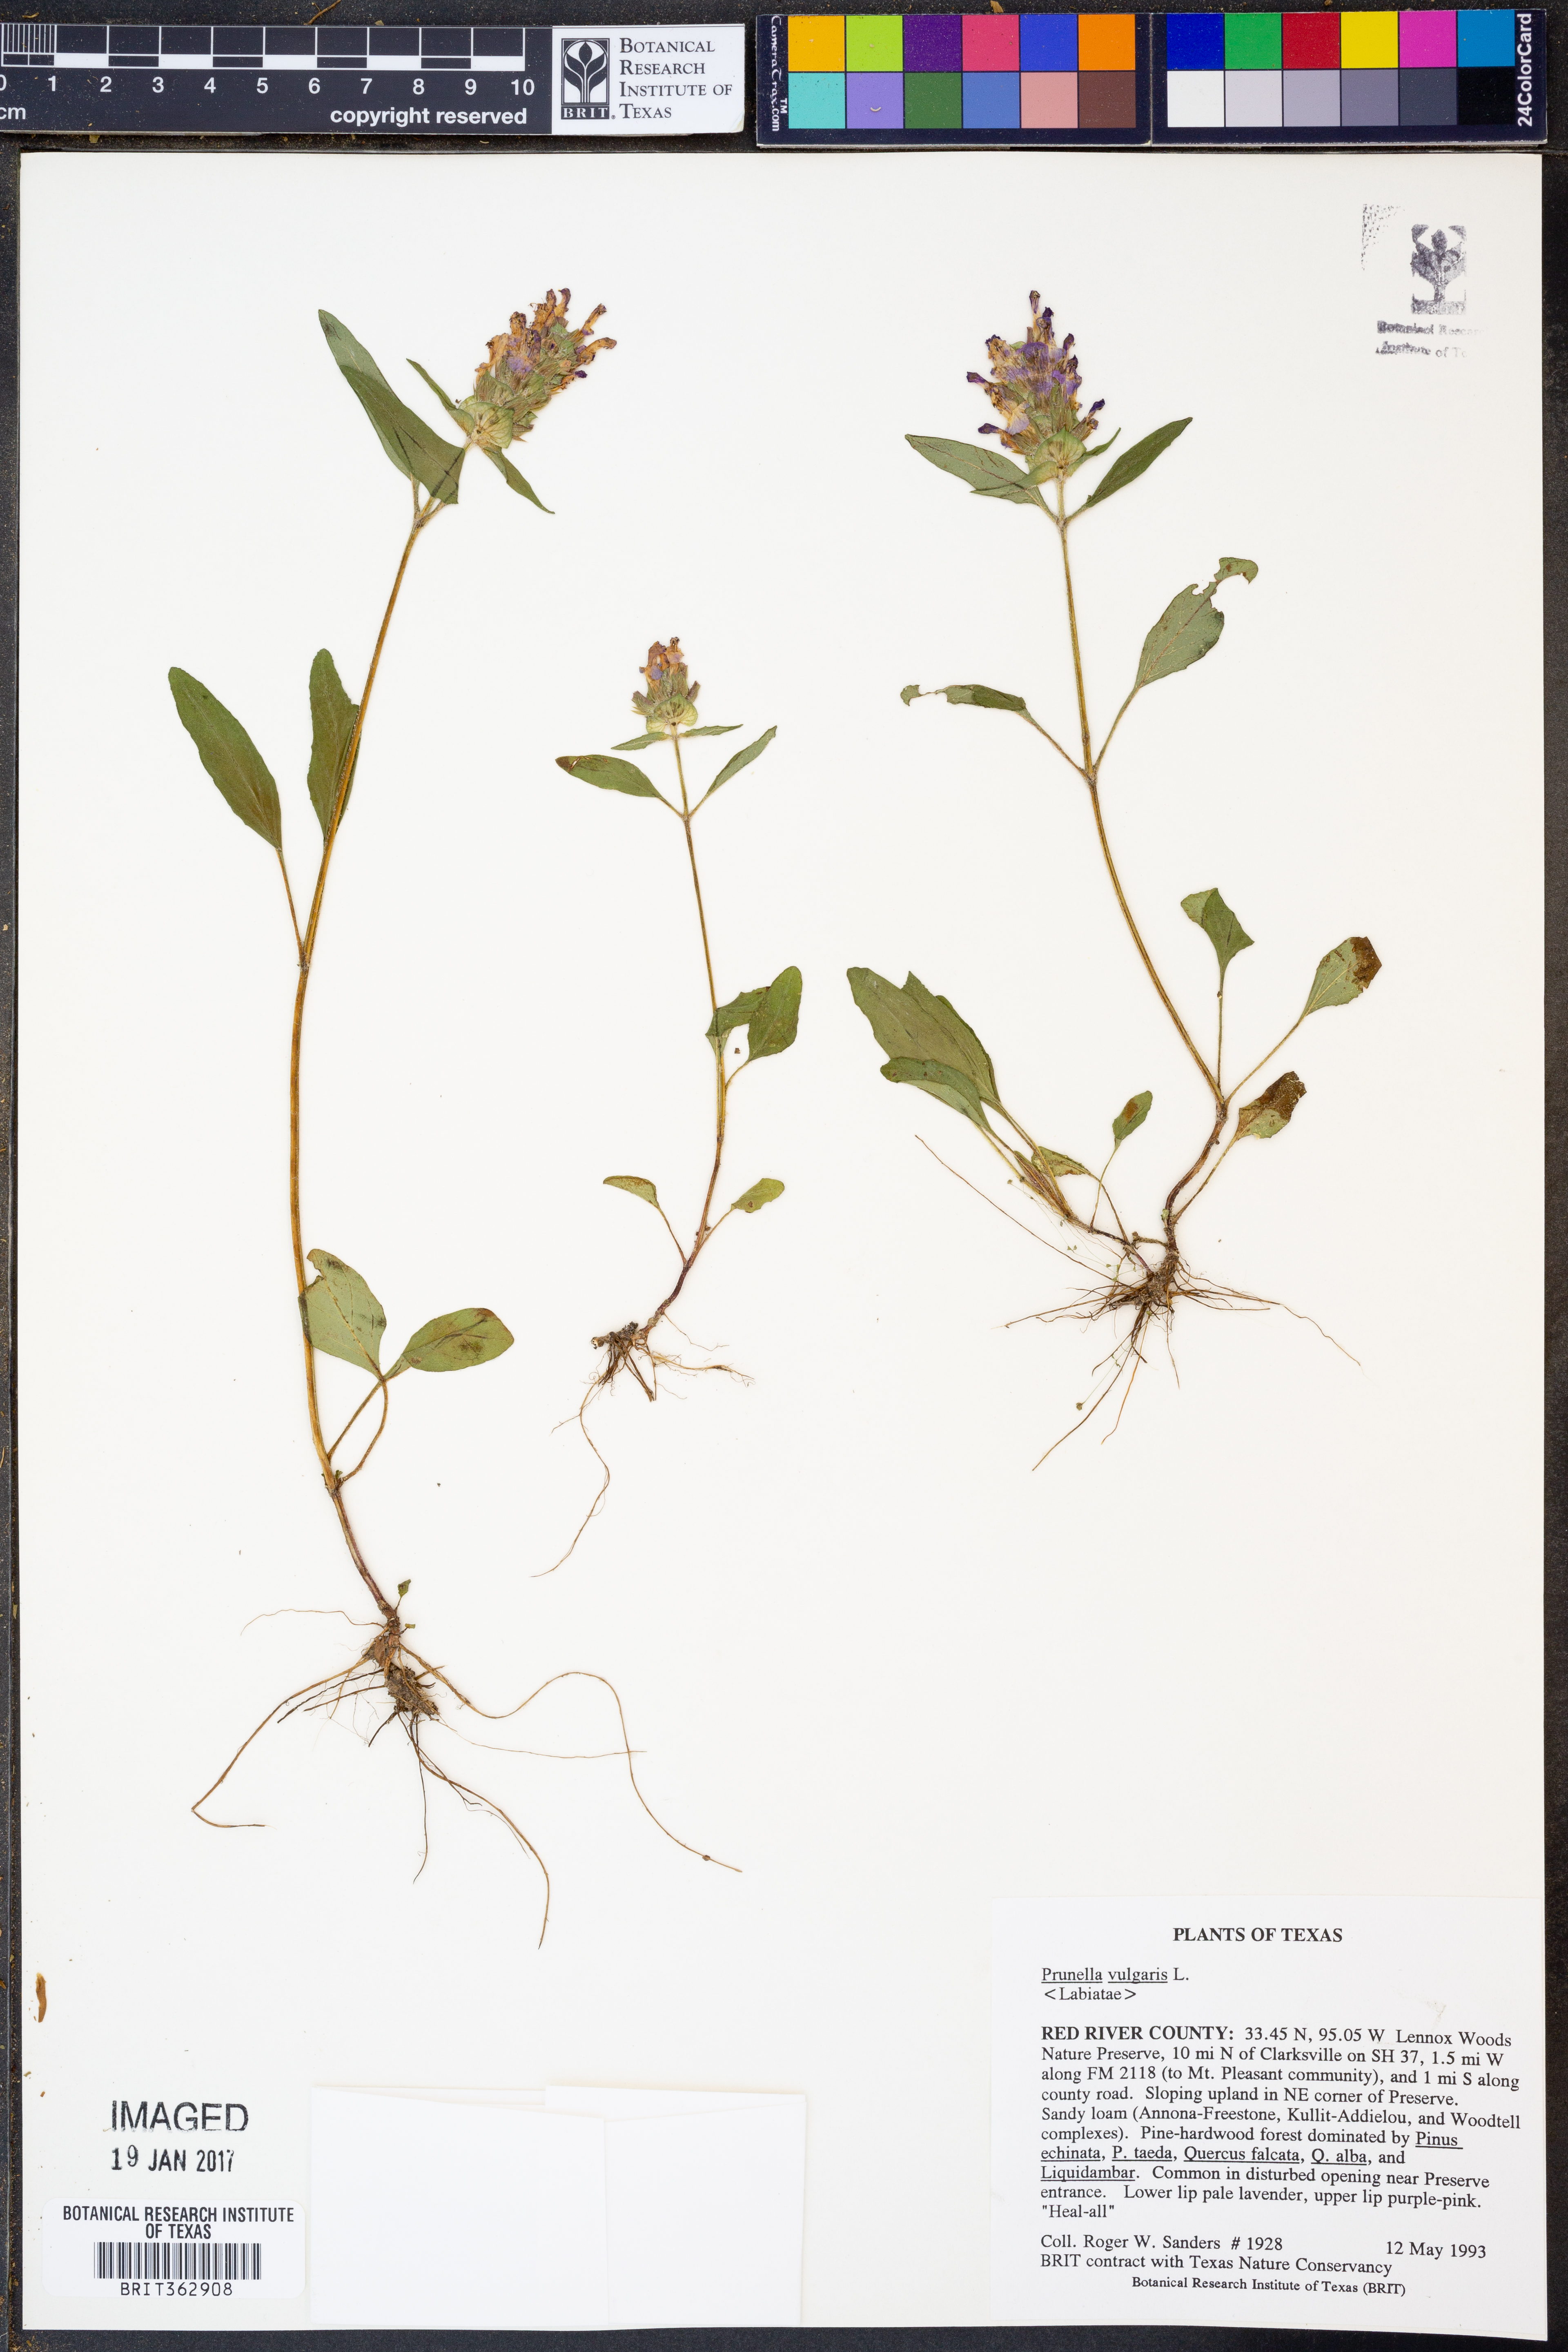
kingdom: Plantae
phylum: Tracheophyta
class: Magnoliopsida
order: Lamiales
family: Lamiaceae
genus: Prunella
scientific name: Prunella vulgaris
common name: Heal-all
